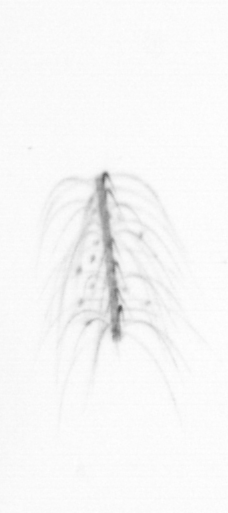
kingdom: Chromista
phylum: Ochrophyta
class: Bacillariophyceae
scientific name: Bacillariophyceae
